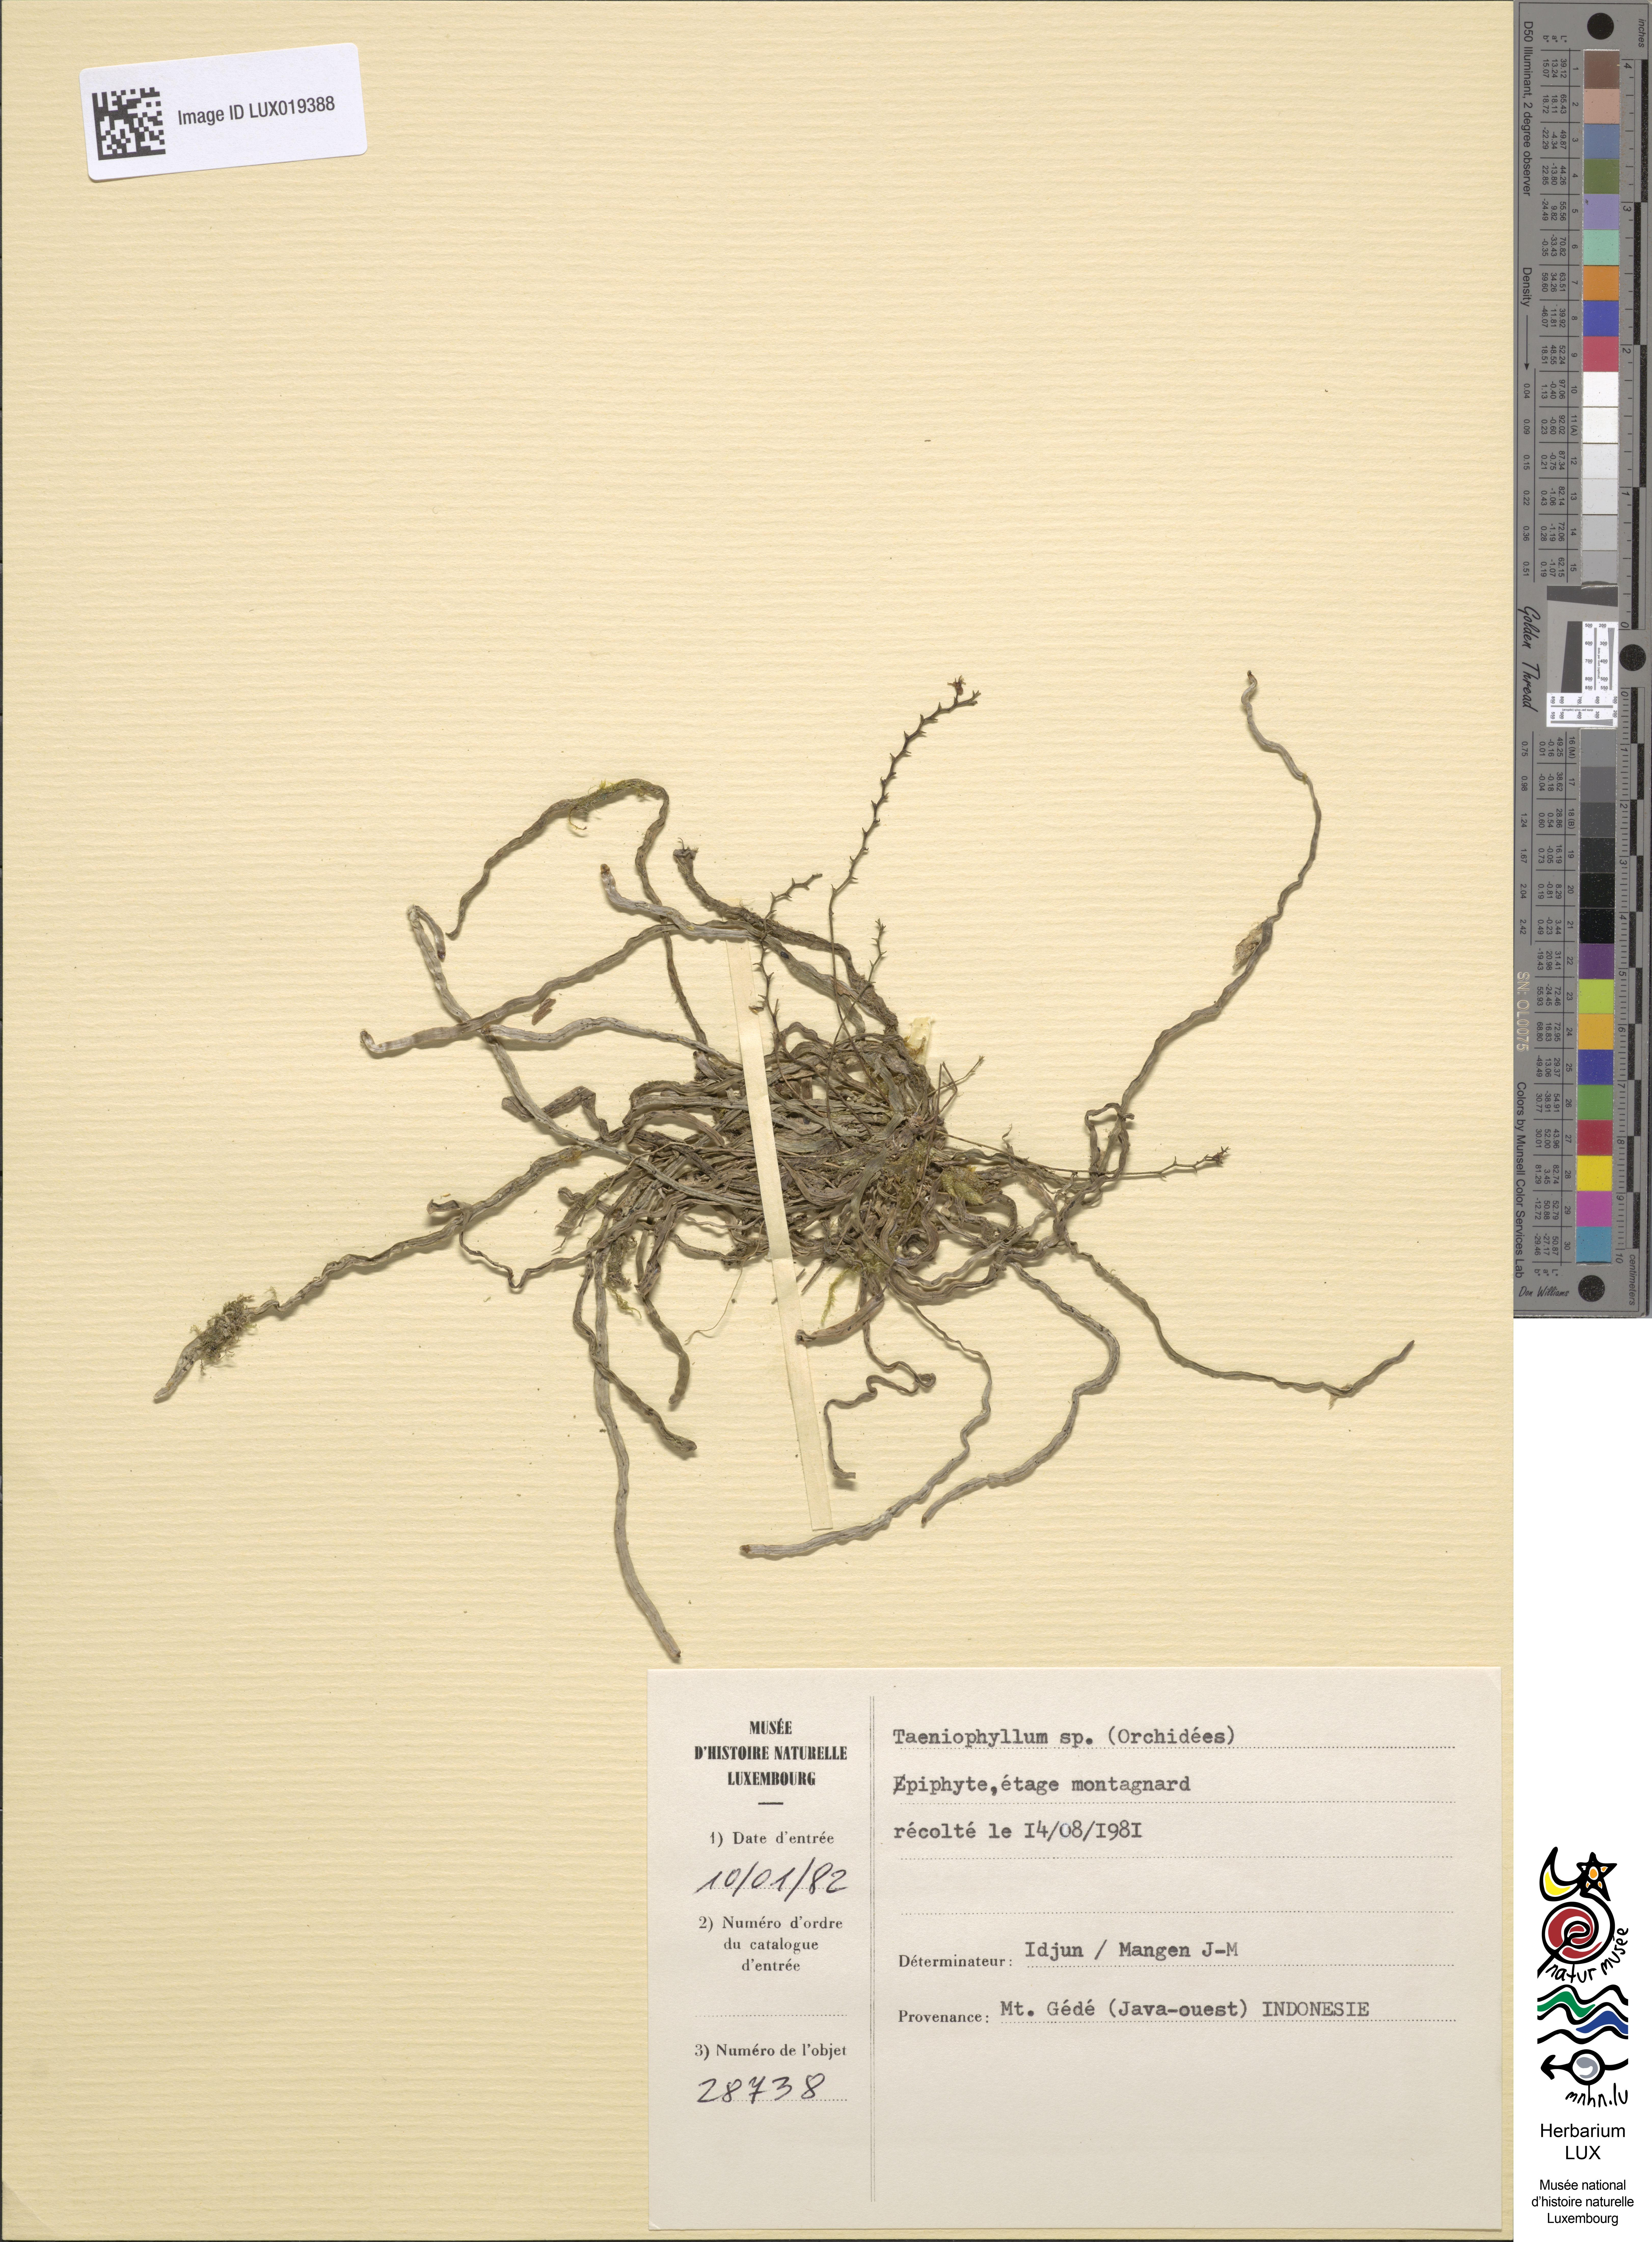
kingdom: Plantae
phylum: Tracheophyta
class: Liliopsida
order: Asparagales
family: Orchidaceae
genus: Taeniophyllum
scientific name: Taeniophyllum
